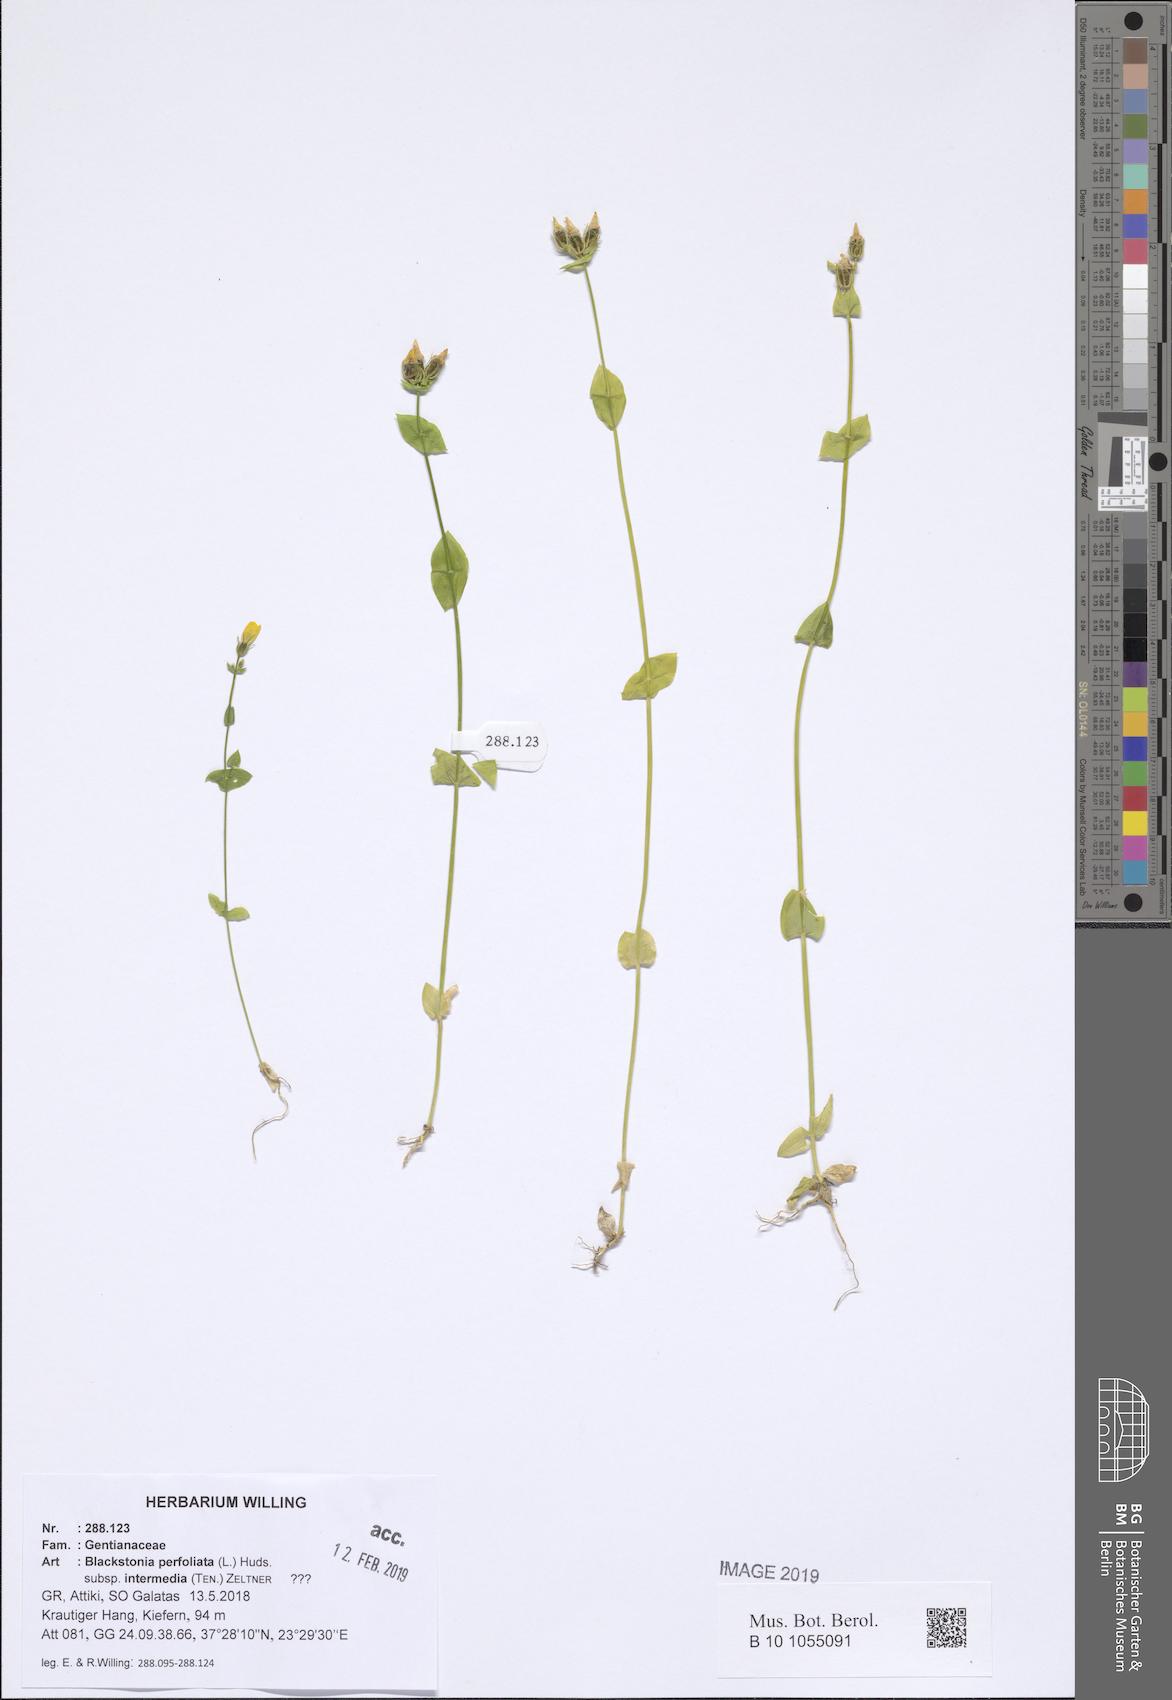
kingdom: Plantae
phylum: Tracheophyta
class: Magnoliopsida
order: Gentianales
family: Gentianaceae
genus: Blackstonia
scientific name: Blackstonia perfoliata
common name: Yellow-wort
